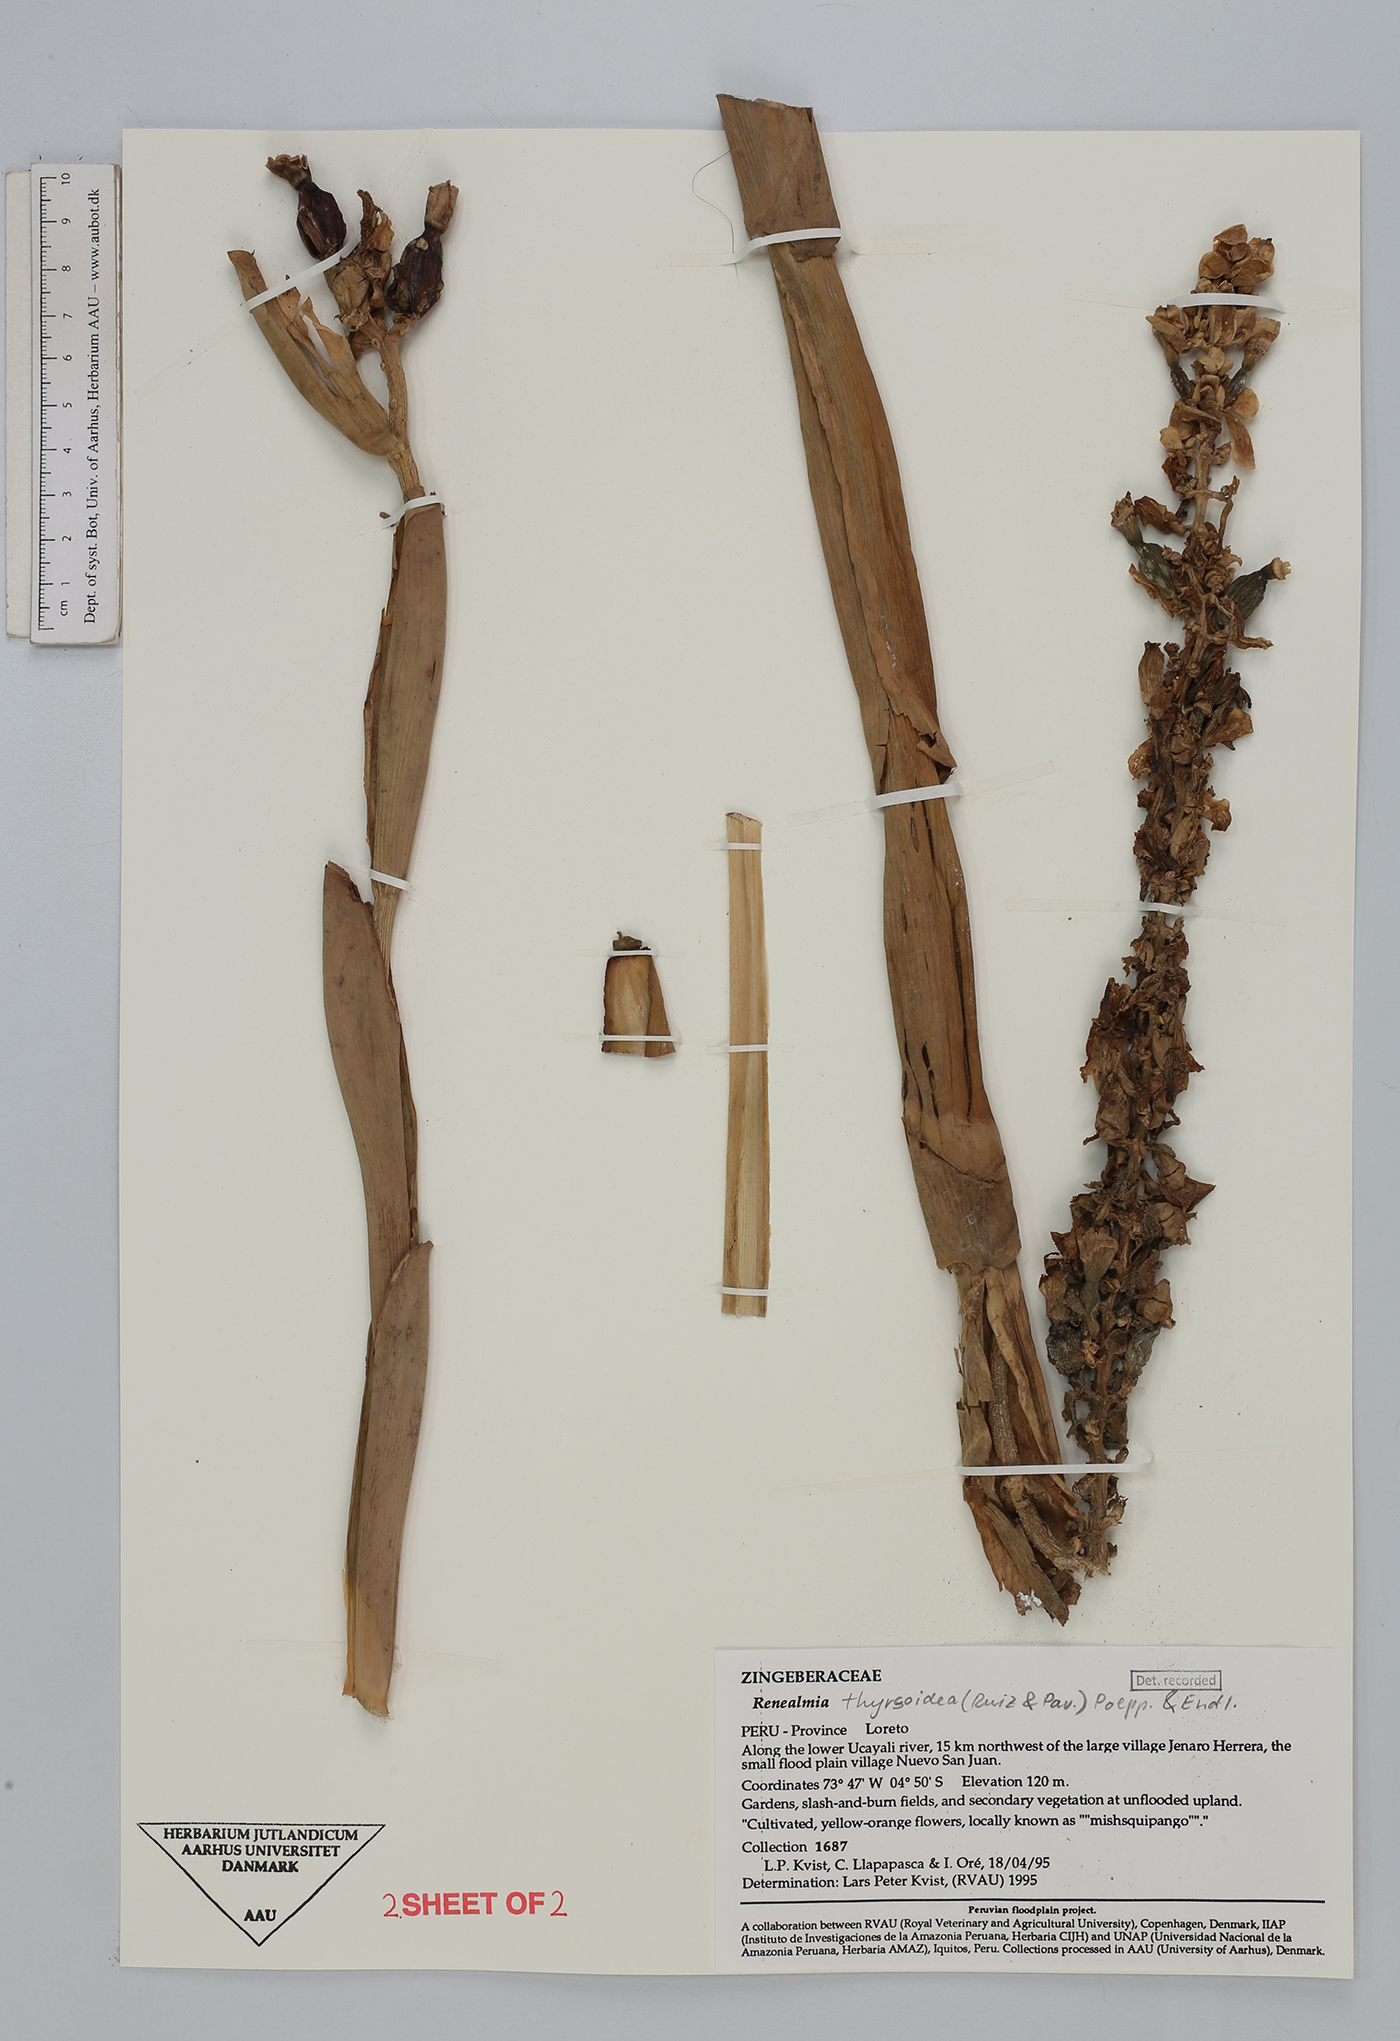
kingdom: Plantae
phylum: Tracheophyta
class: Liliopsida
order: Zingiberales
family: Zingiberaceae
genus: Renealmia
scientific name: Renealmia thyrsoidea
